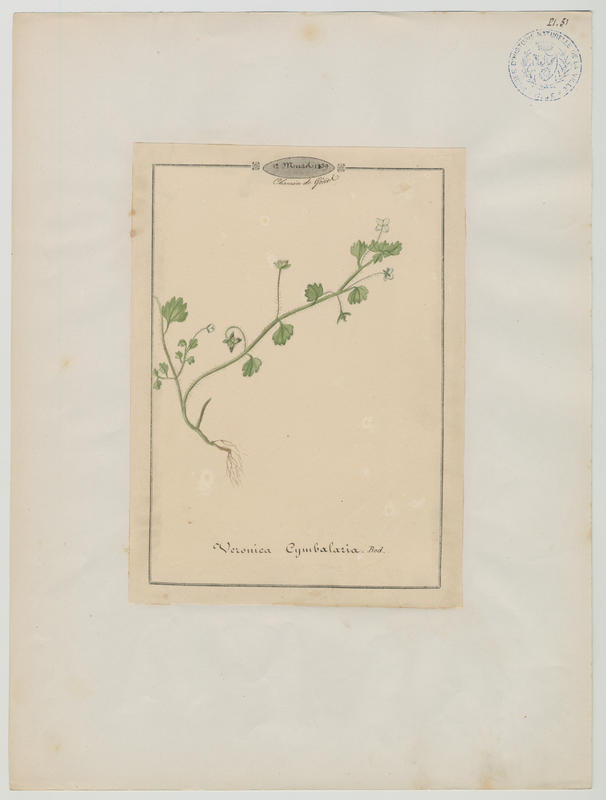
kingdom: Plantae
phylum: Tracheophyta
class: Magnoliopsida
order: Lamiales
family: Plantaginaceae
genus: Veronica
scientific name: Veronica cymbalaria
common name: Pale speedwell
